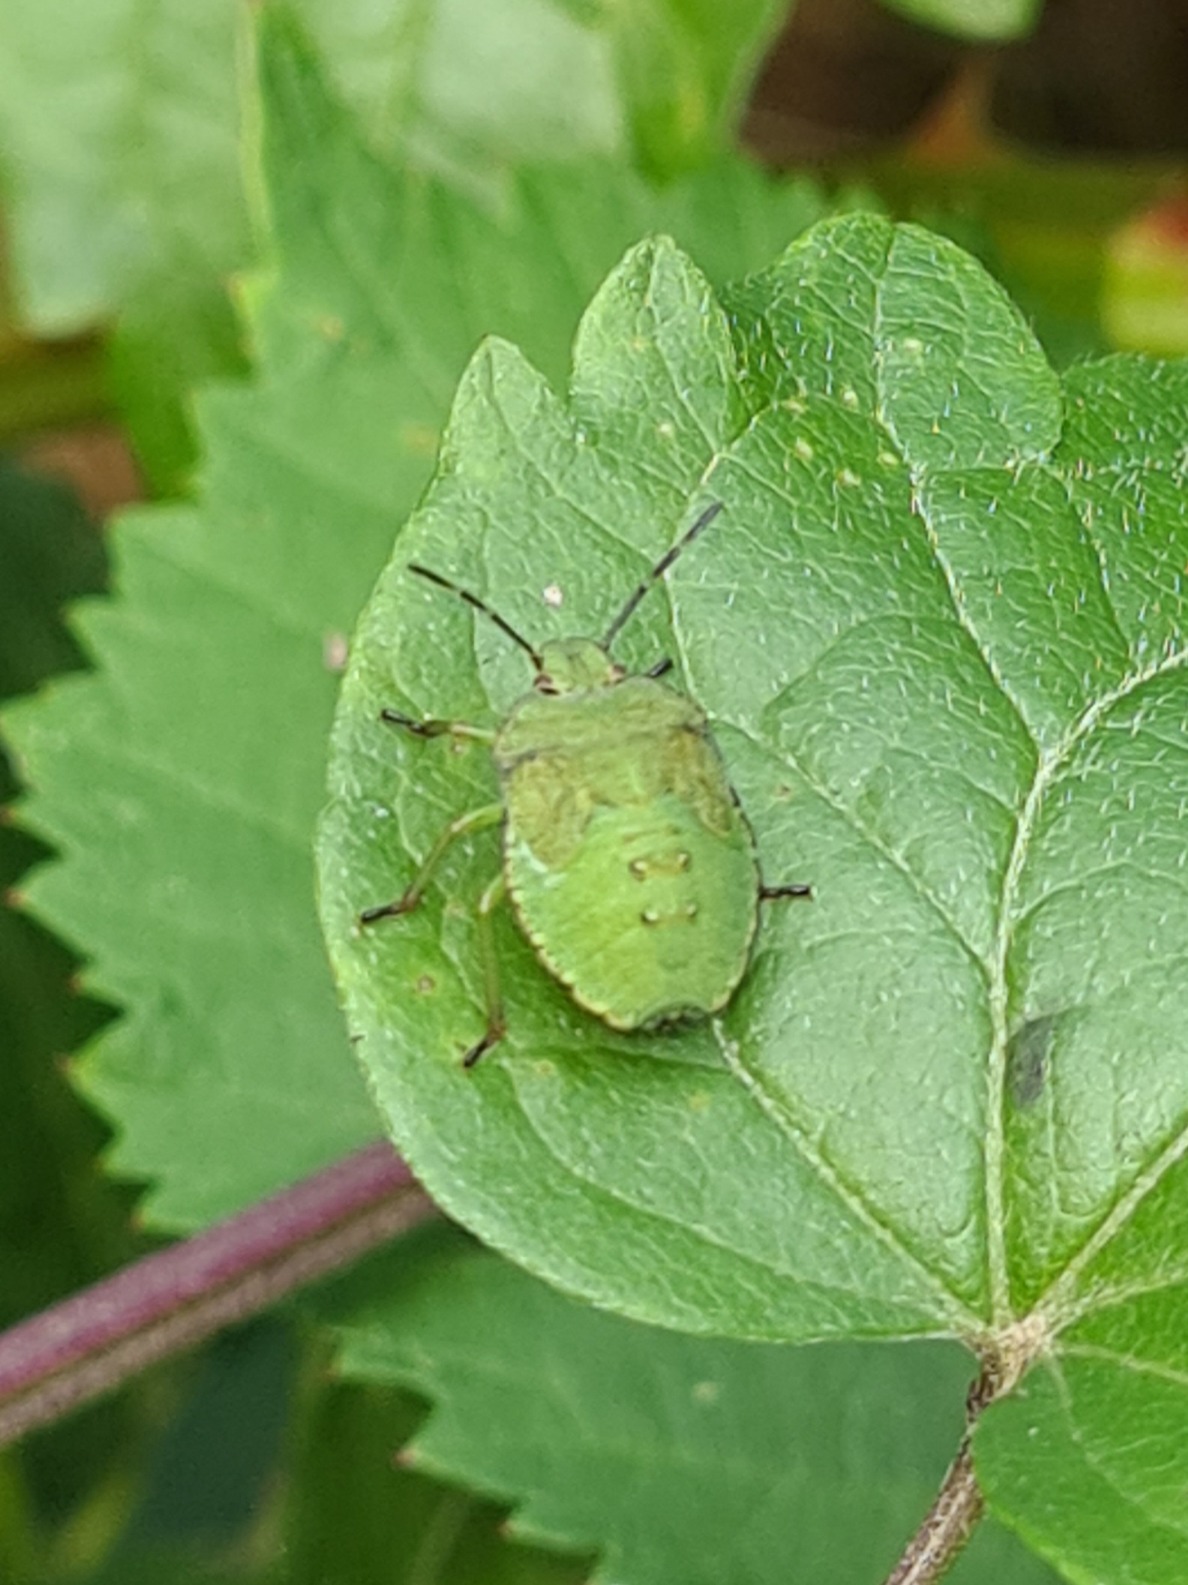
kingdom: Animalia
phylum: Arthropoda
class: Insecta
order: Hemiptera
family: Pentatomidae
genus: Palomena
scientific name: Palomena prasina
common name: Grøn bredtæge
